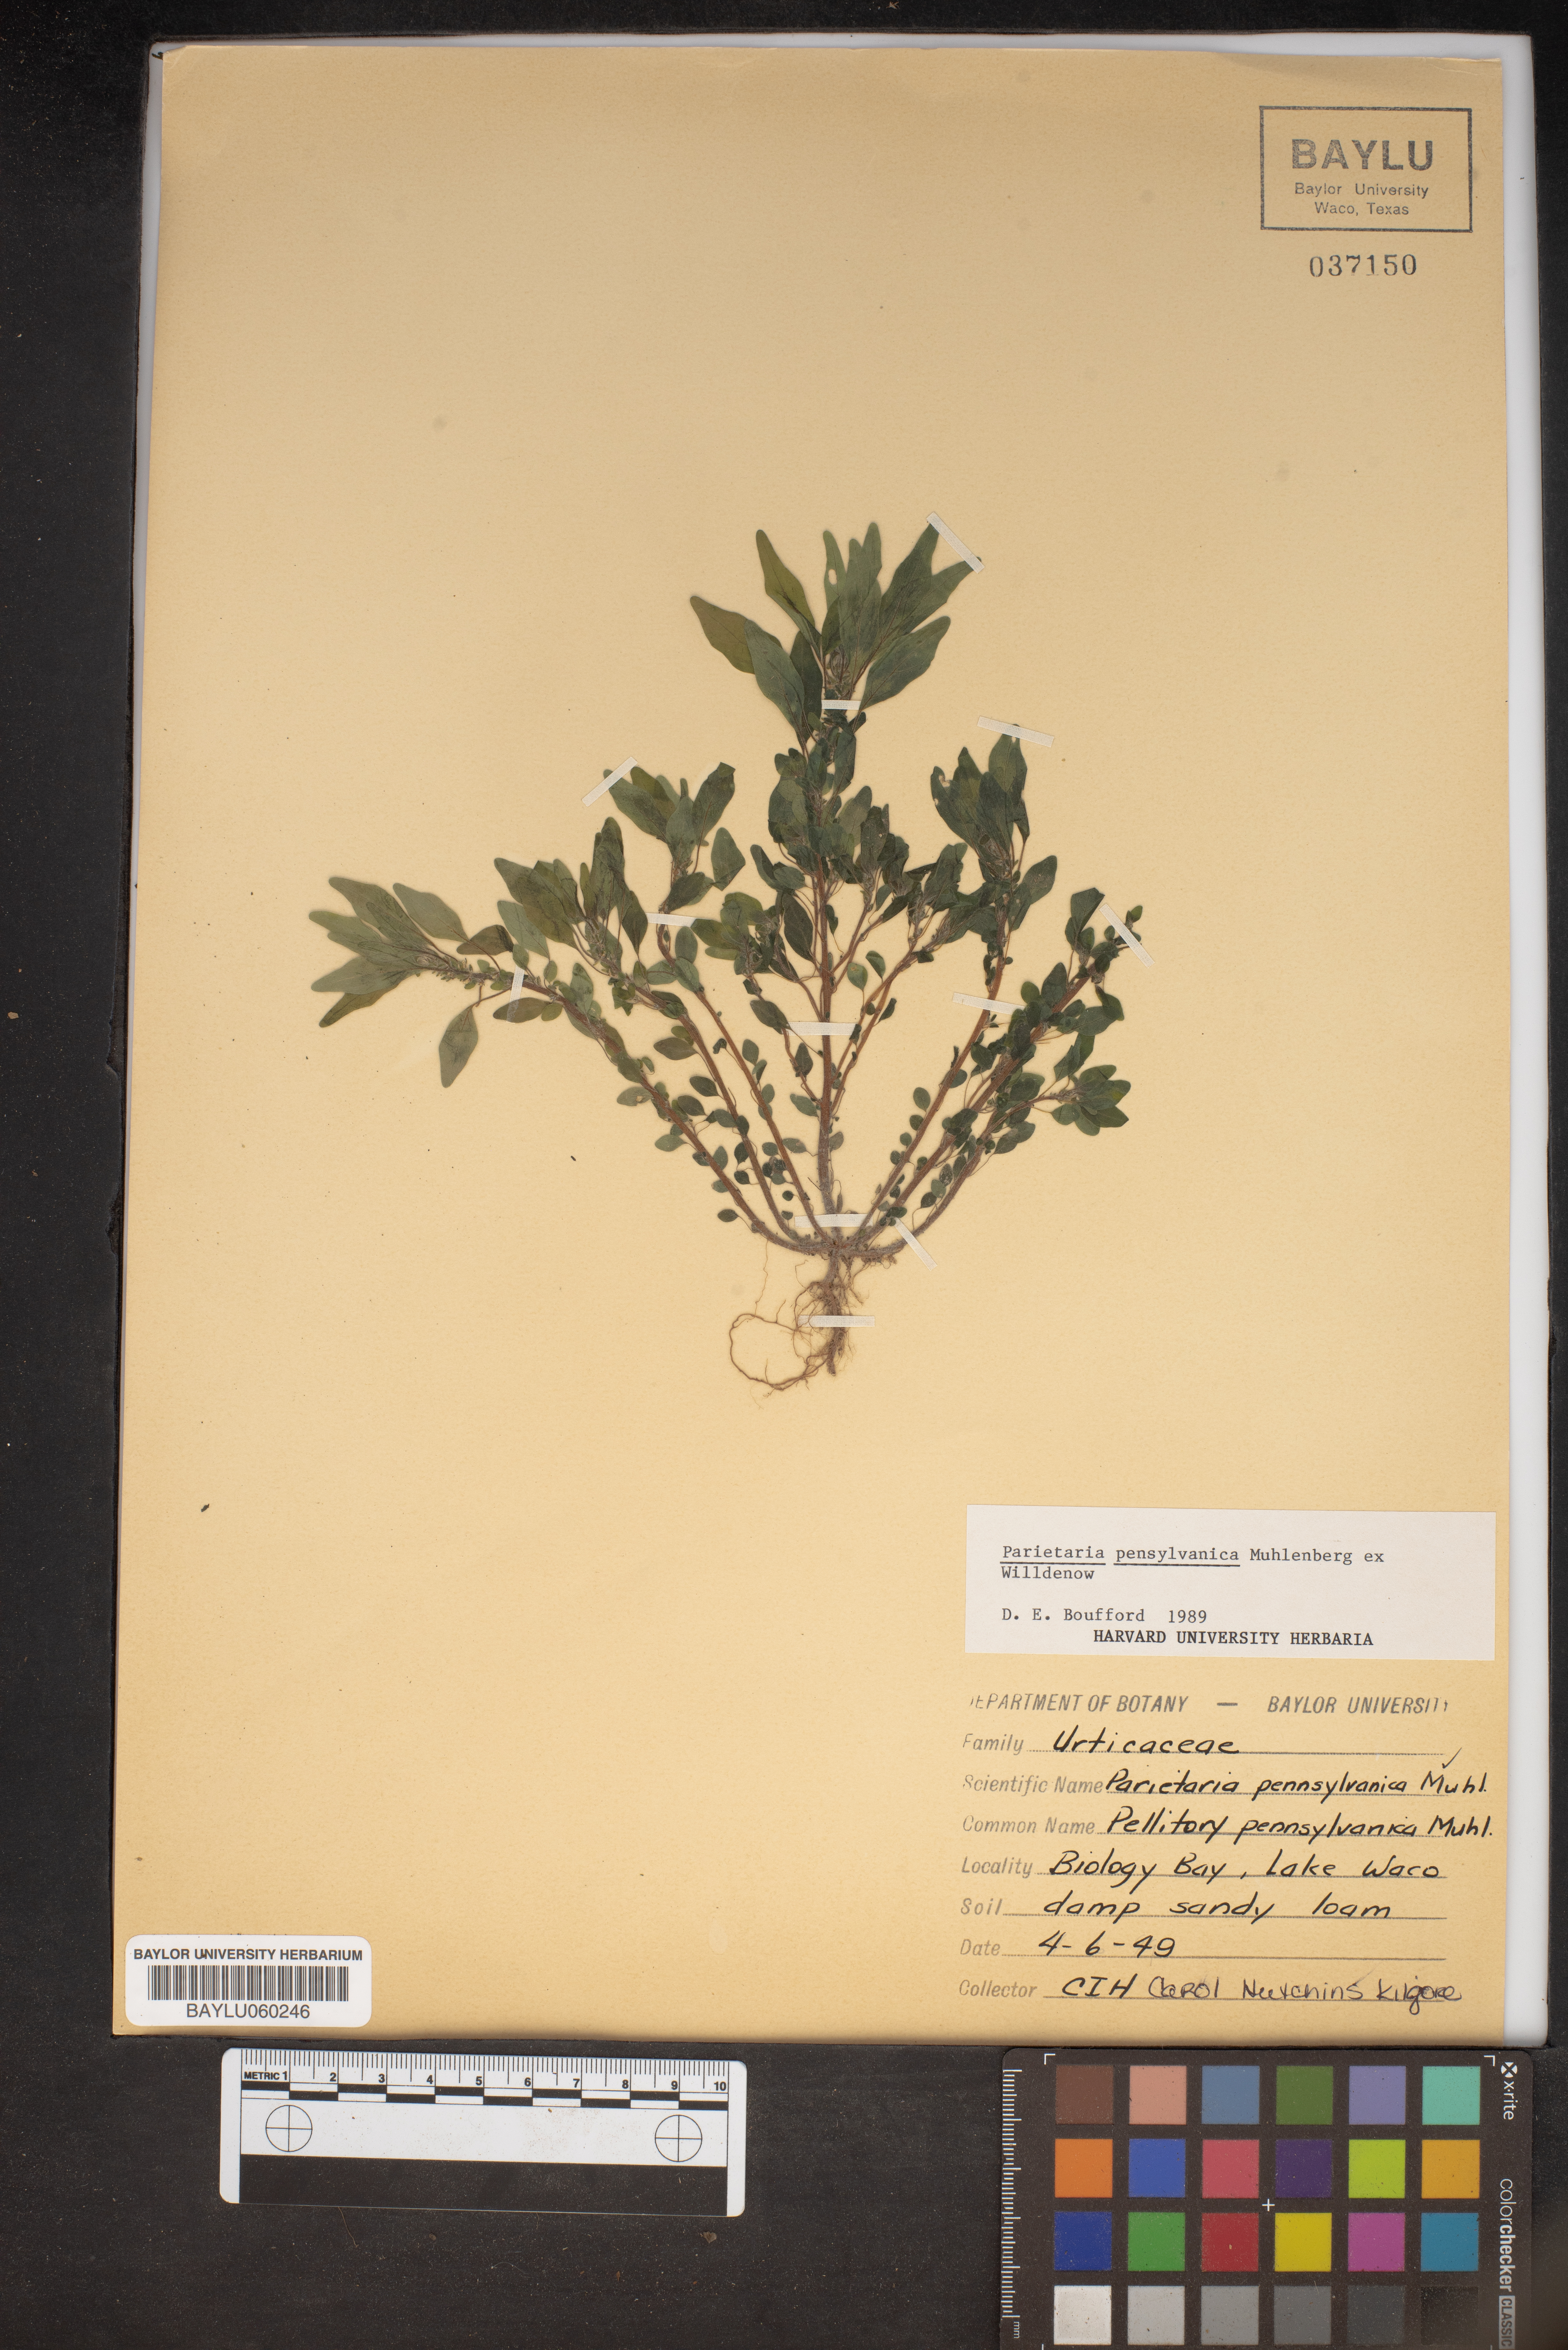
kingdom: Plantae
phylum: Tracheophyta
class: Magnoliopsida
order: Rosales
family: Urticaceae
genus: Parietaria
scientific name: Parietaria pensylvanica
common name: Pennsylvania pellitory
